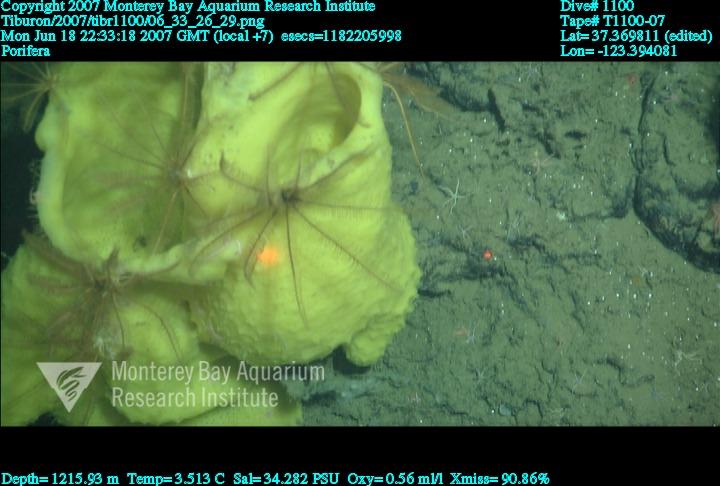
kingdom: Animalia
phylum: Porifera
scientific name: Porifera
